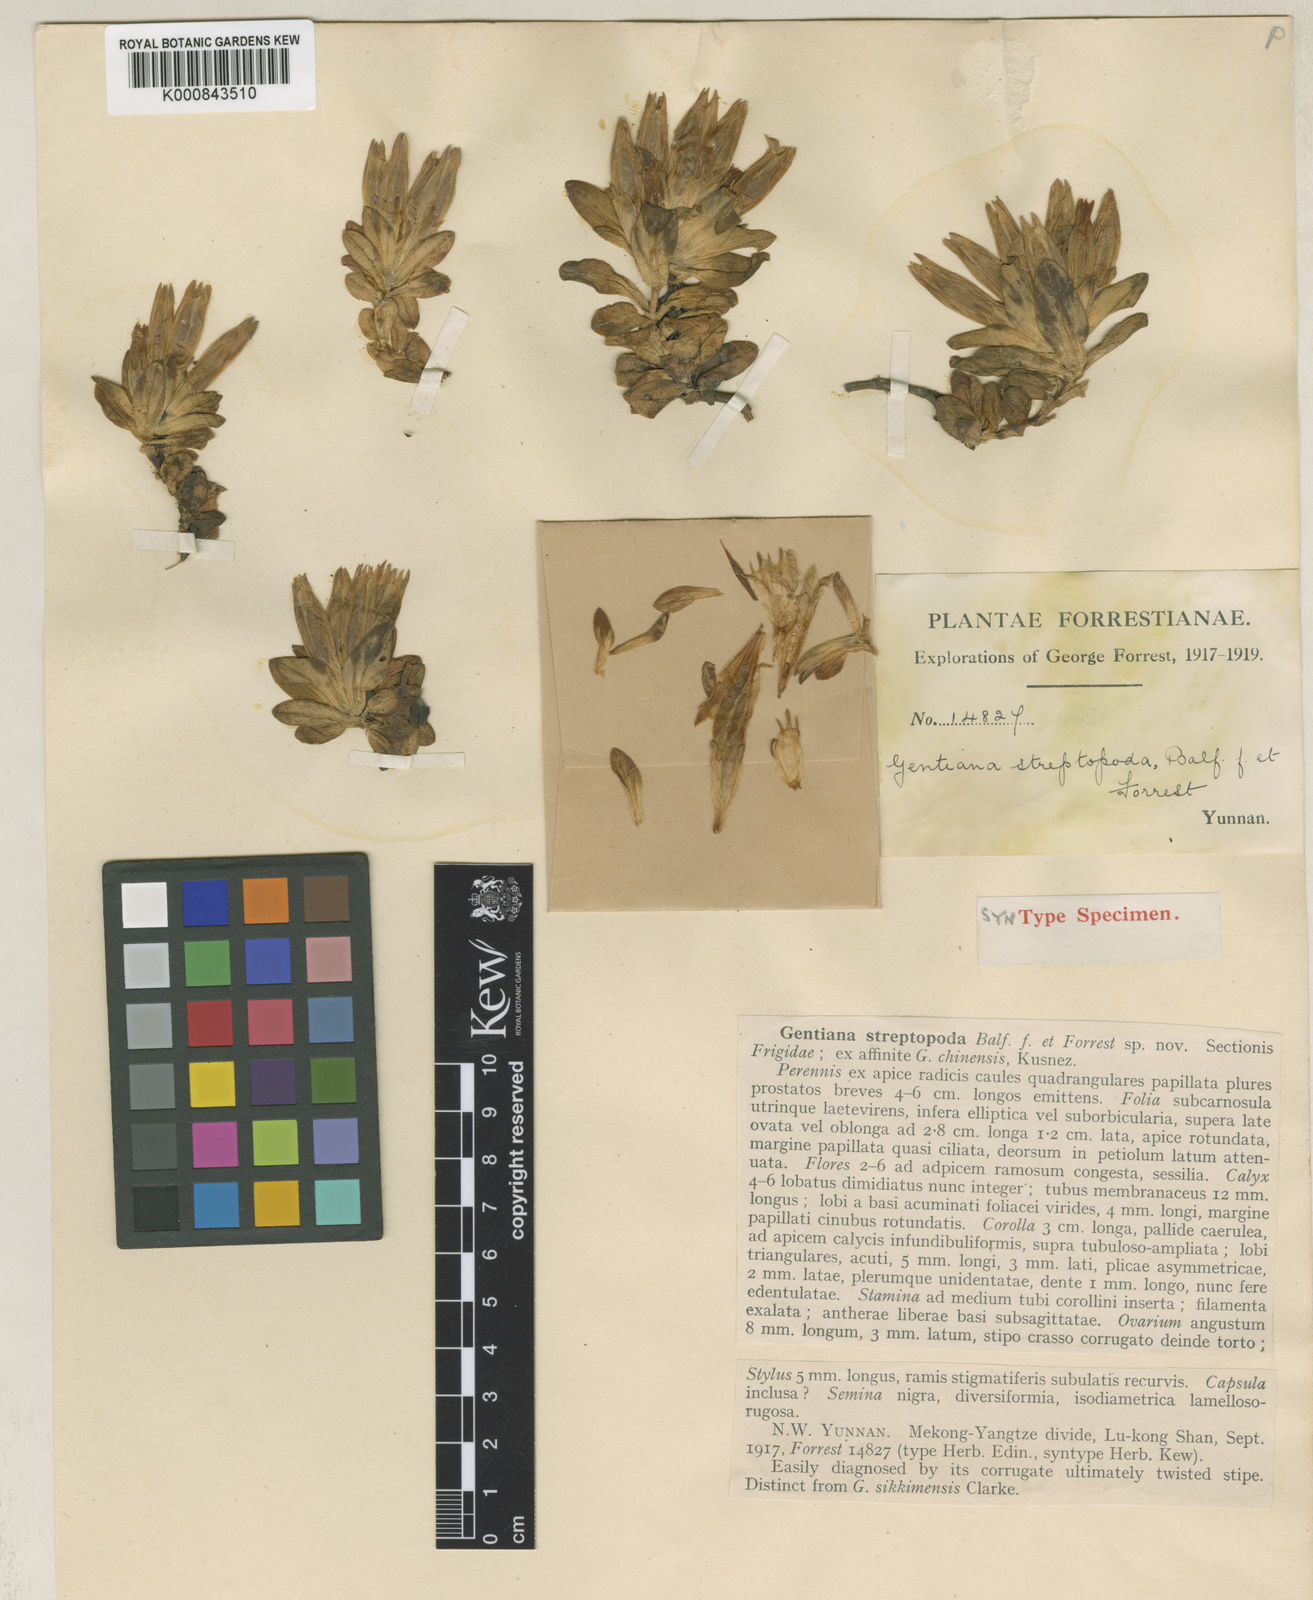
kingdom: Plantae
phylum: Tracheophyta
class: Magnoliopsida
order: Gentianales
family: Gentianaceae
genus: Gentiana
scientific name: Gentiana harrowiana
